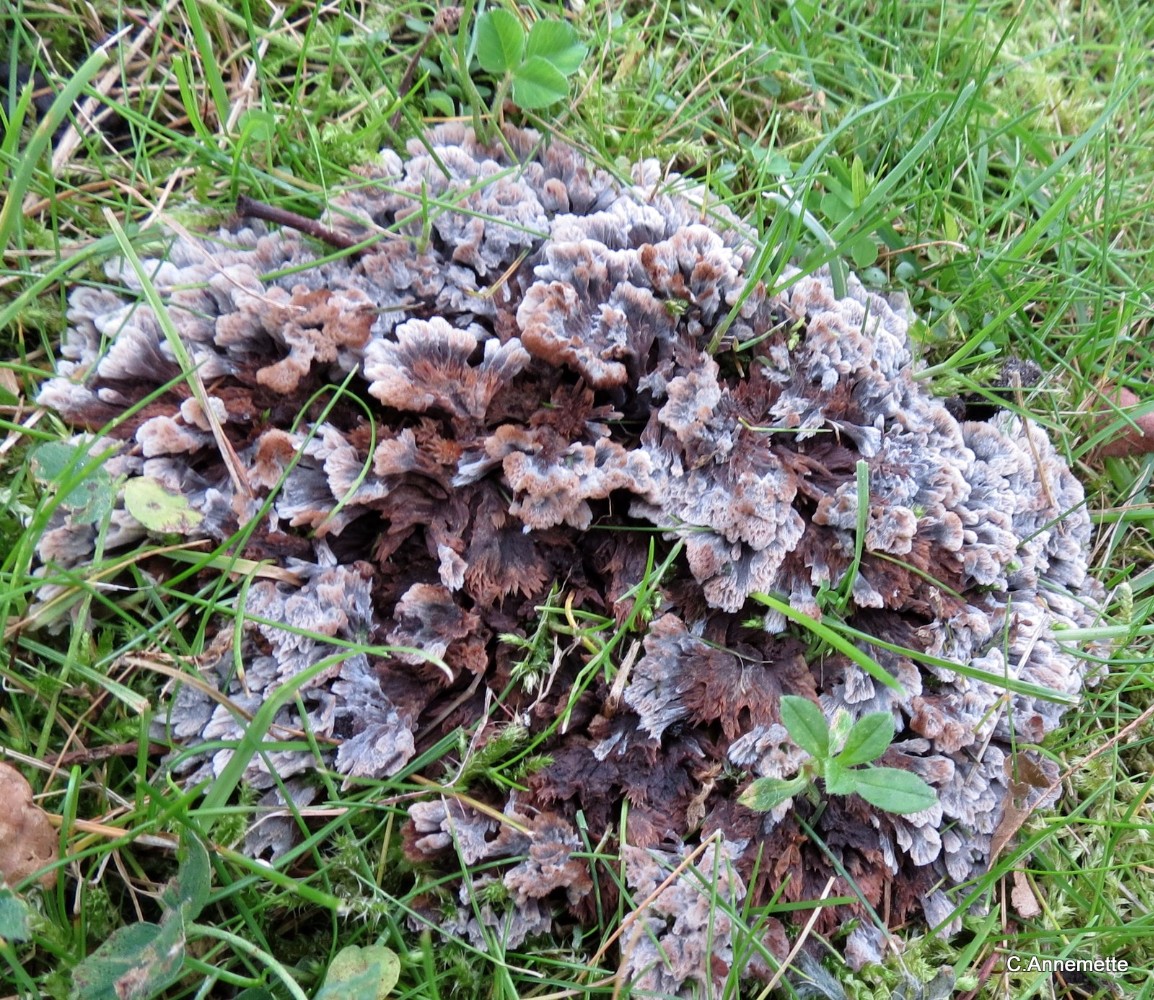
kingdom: Fungi
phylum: Basidiomycota
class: Agaricomycetes
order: Thelephorales
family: Thelephoraceae
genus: Thelephora
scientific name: Thelephora
